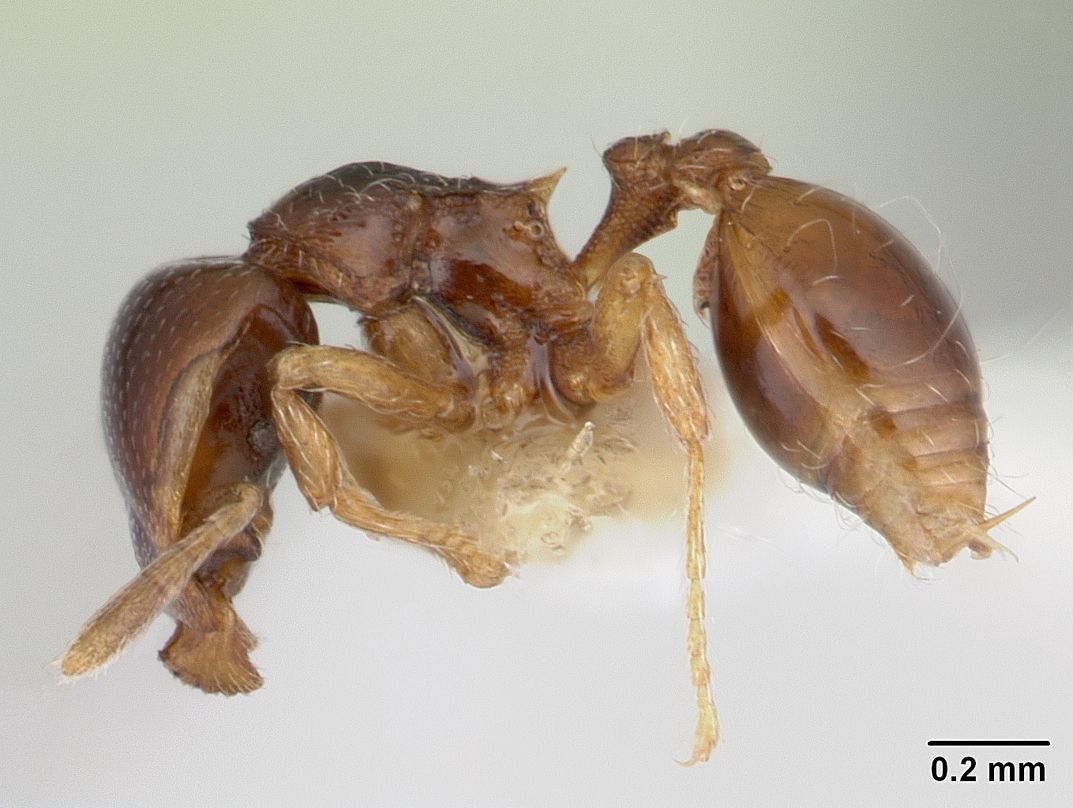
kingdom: Animalia
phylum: Arthropoda
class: Insecta
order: Hymenoptera
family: Formicidae
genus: Pyramica
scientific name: Pyramica appretiata
